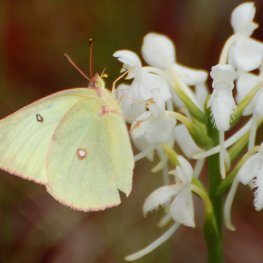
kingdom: Animalia
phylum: Arthropoda
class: Insecta
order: Lepidoptera
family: Pieridae
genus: Colias
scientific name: Colias interior
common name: Pink-edged Sulphur
